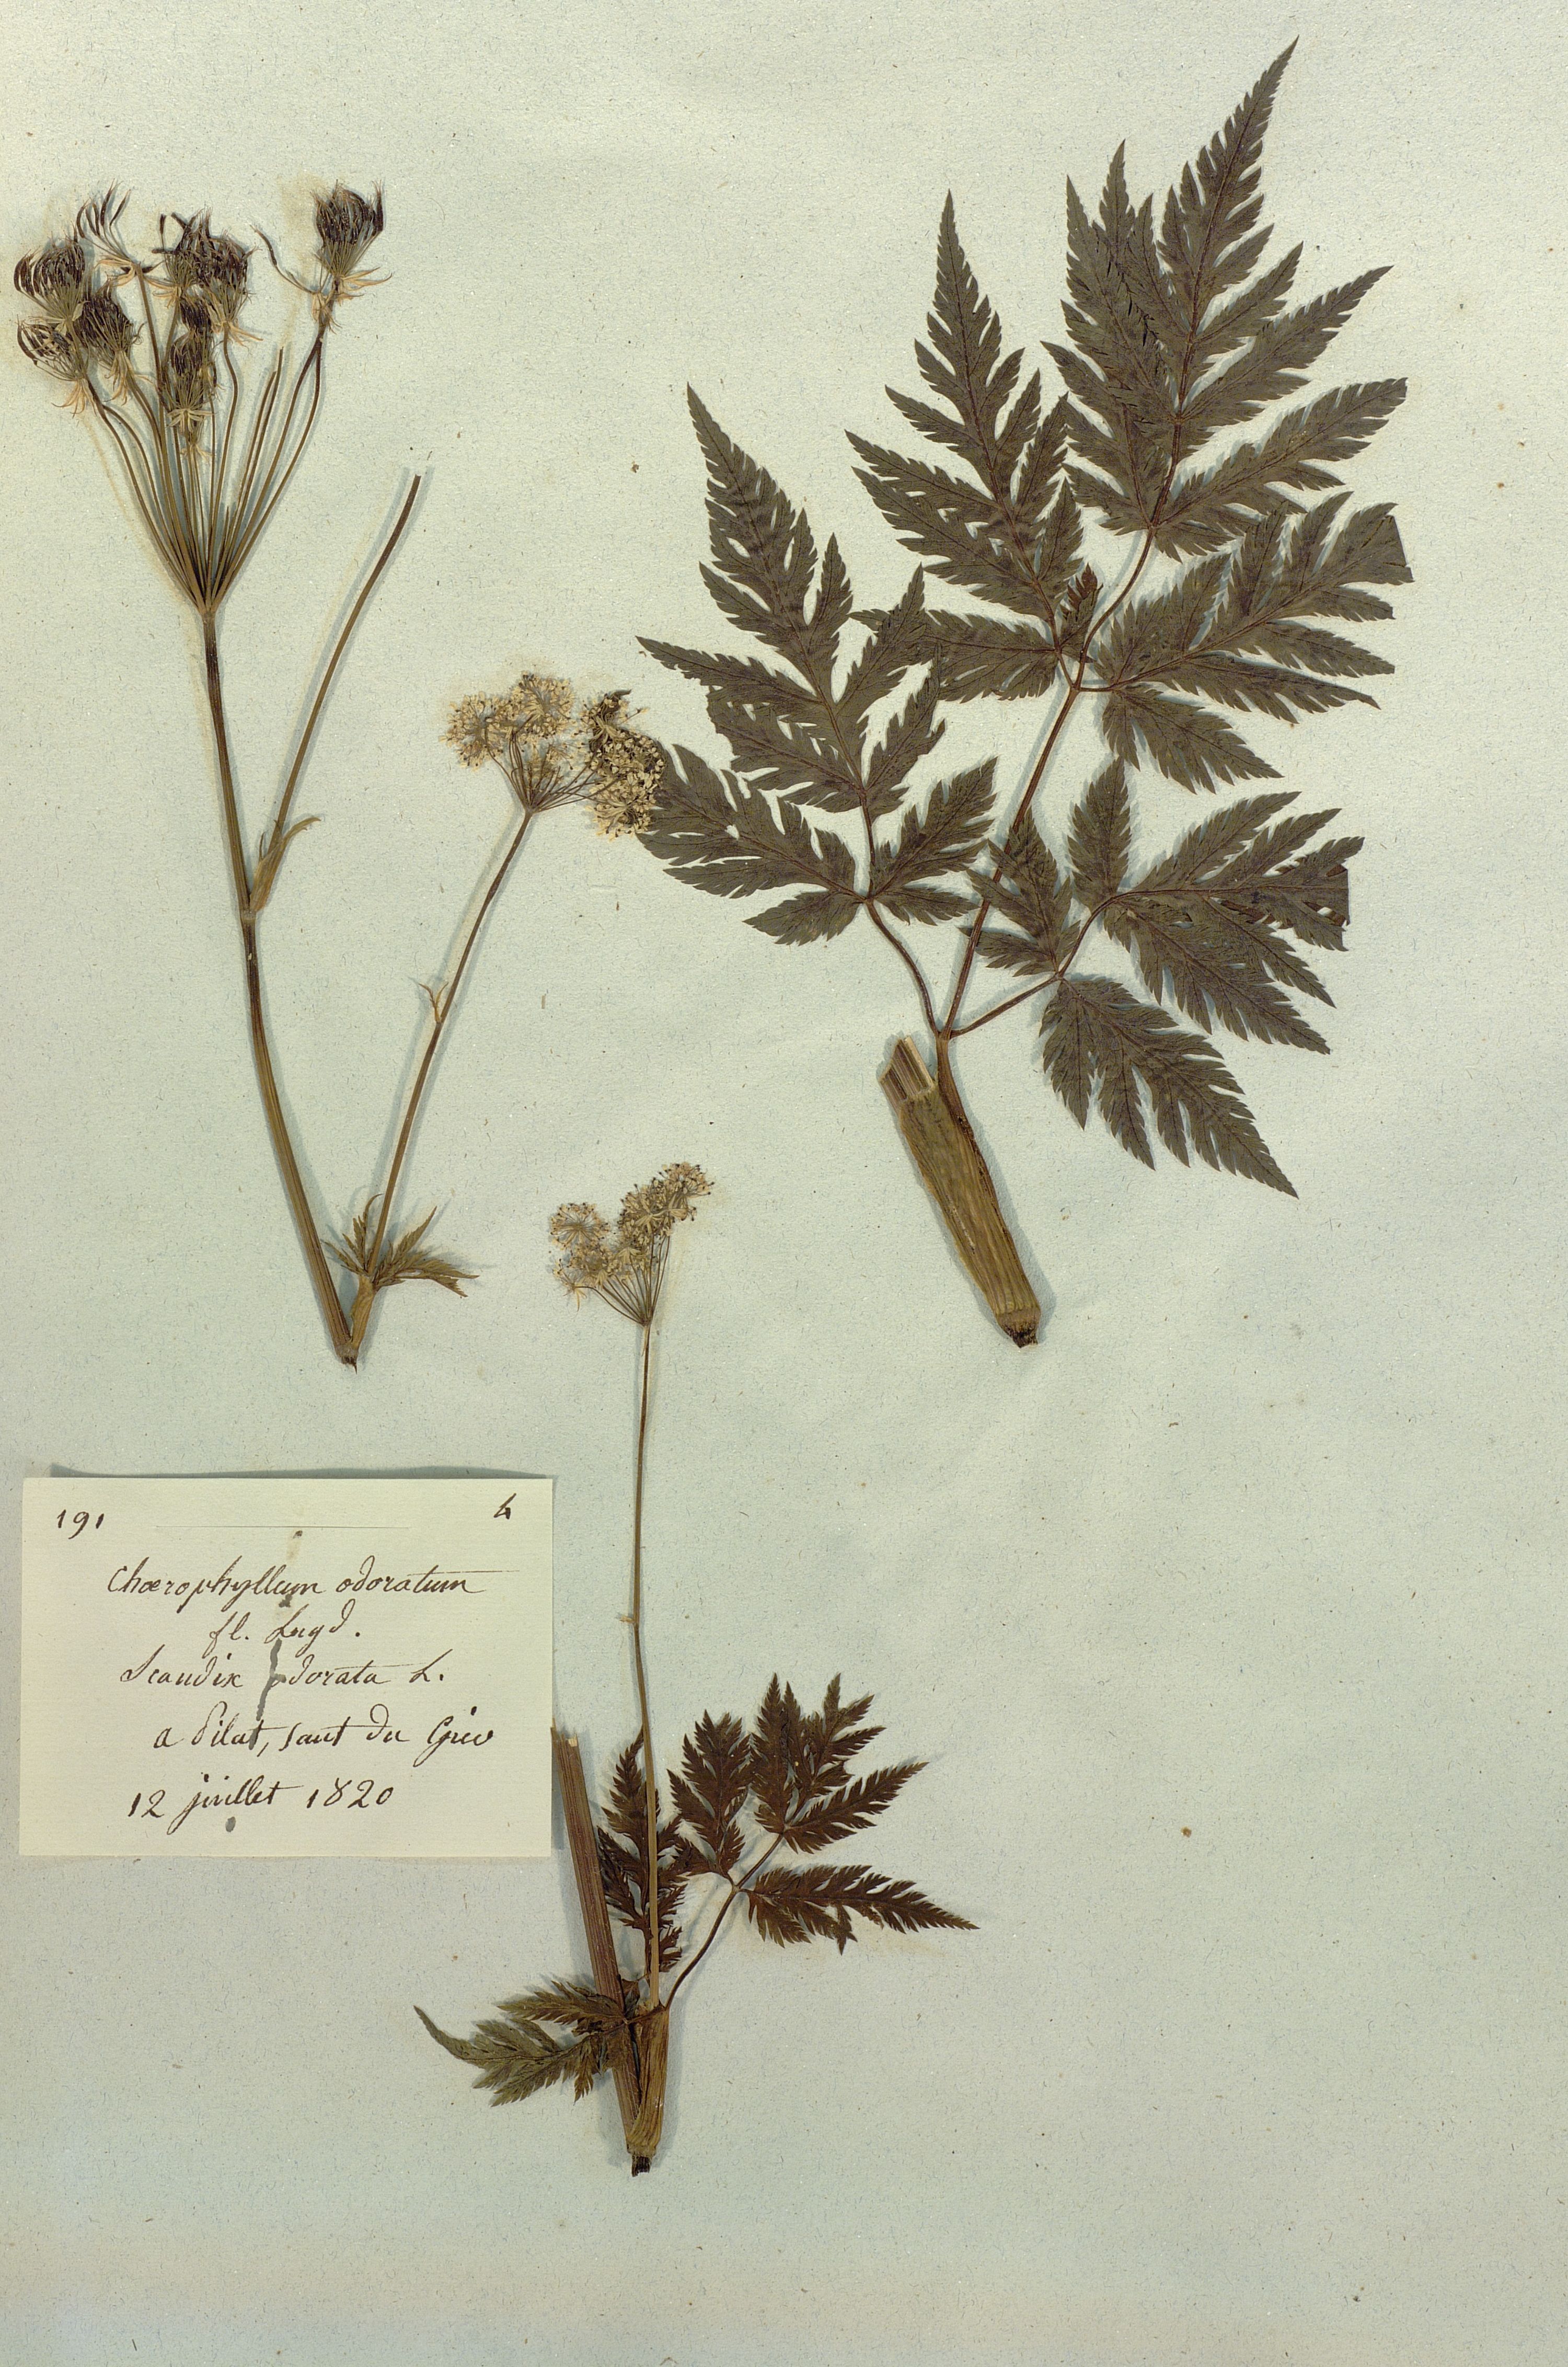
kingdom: Plantae
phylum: Tracheophyta
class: Magnoliopsida
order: Apiales
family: Apiaceae
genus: Myrrhis
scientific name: Myrrhis odorata
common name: Sweet cicely
